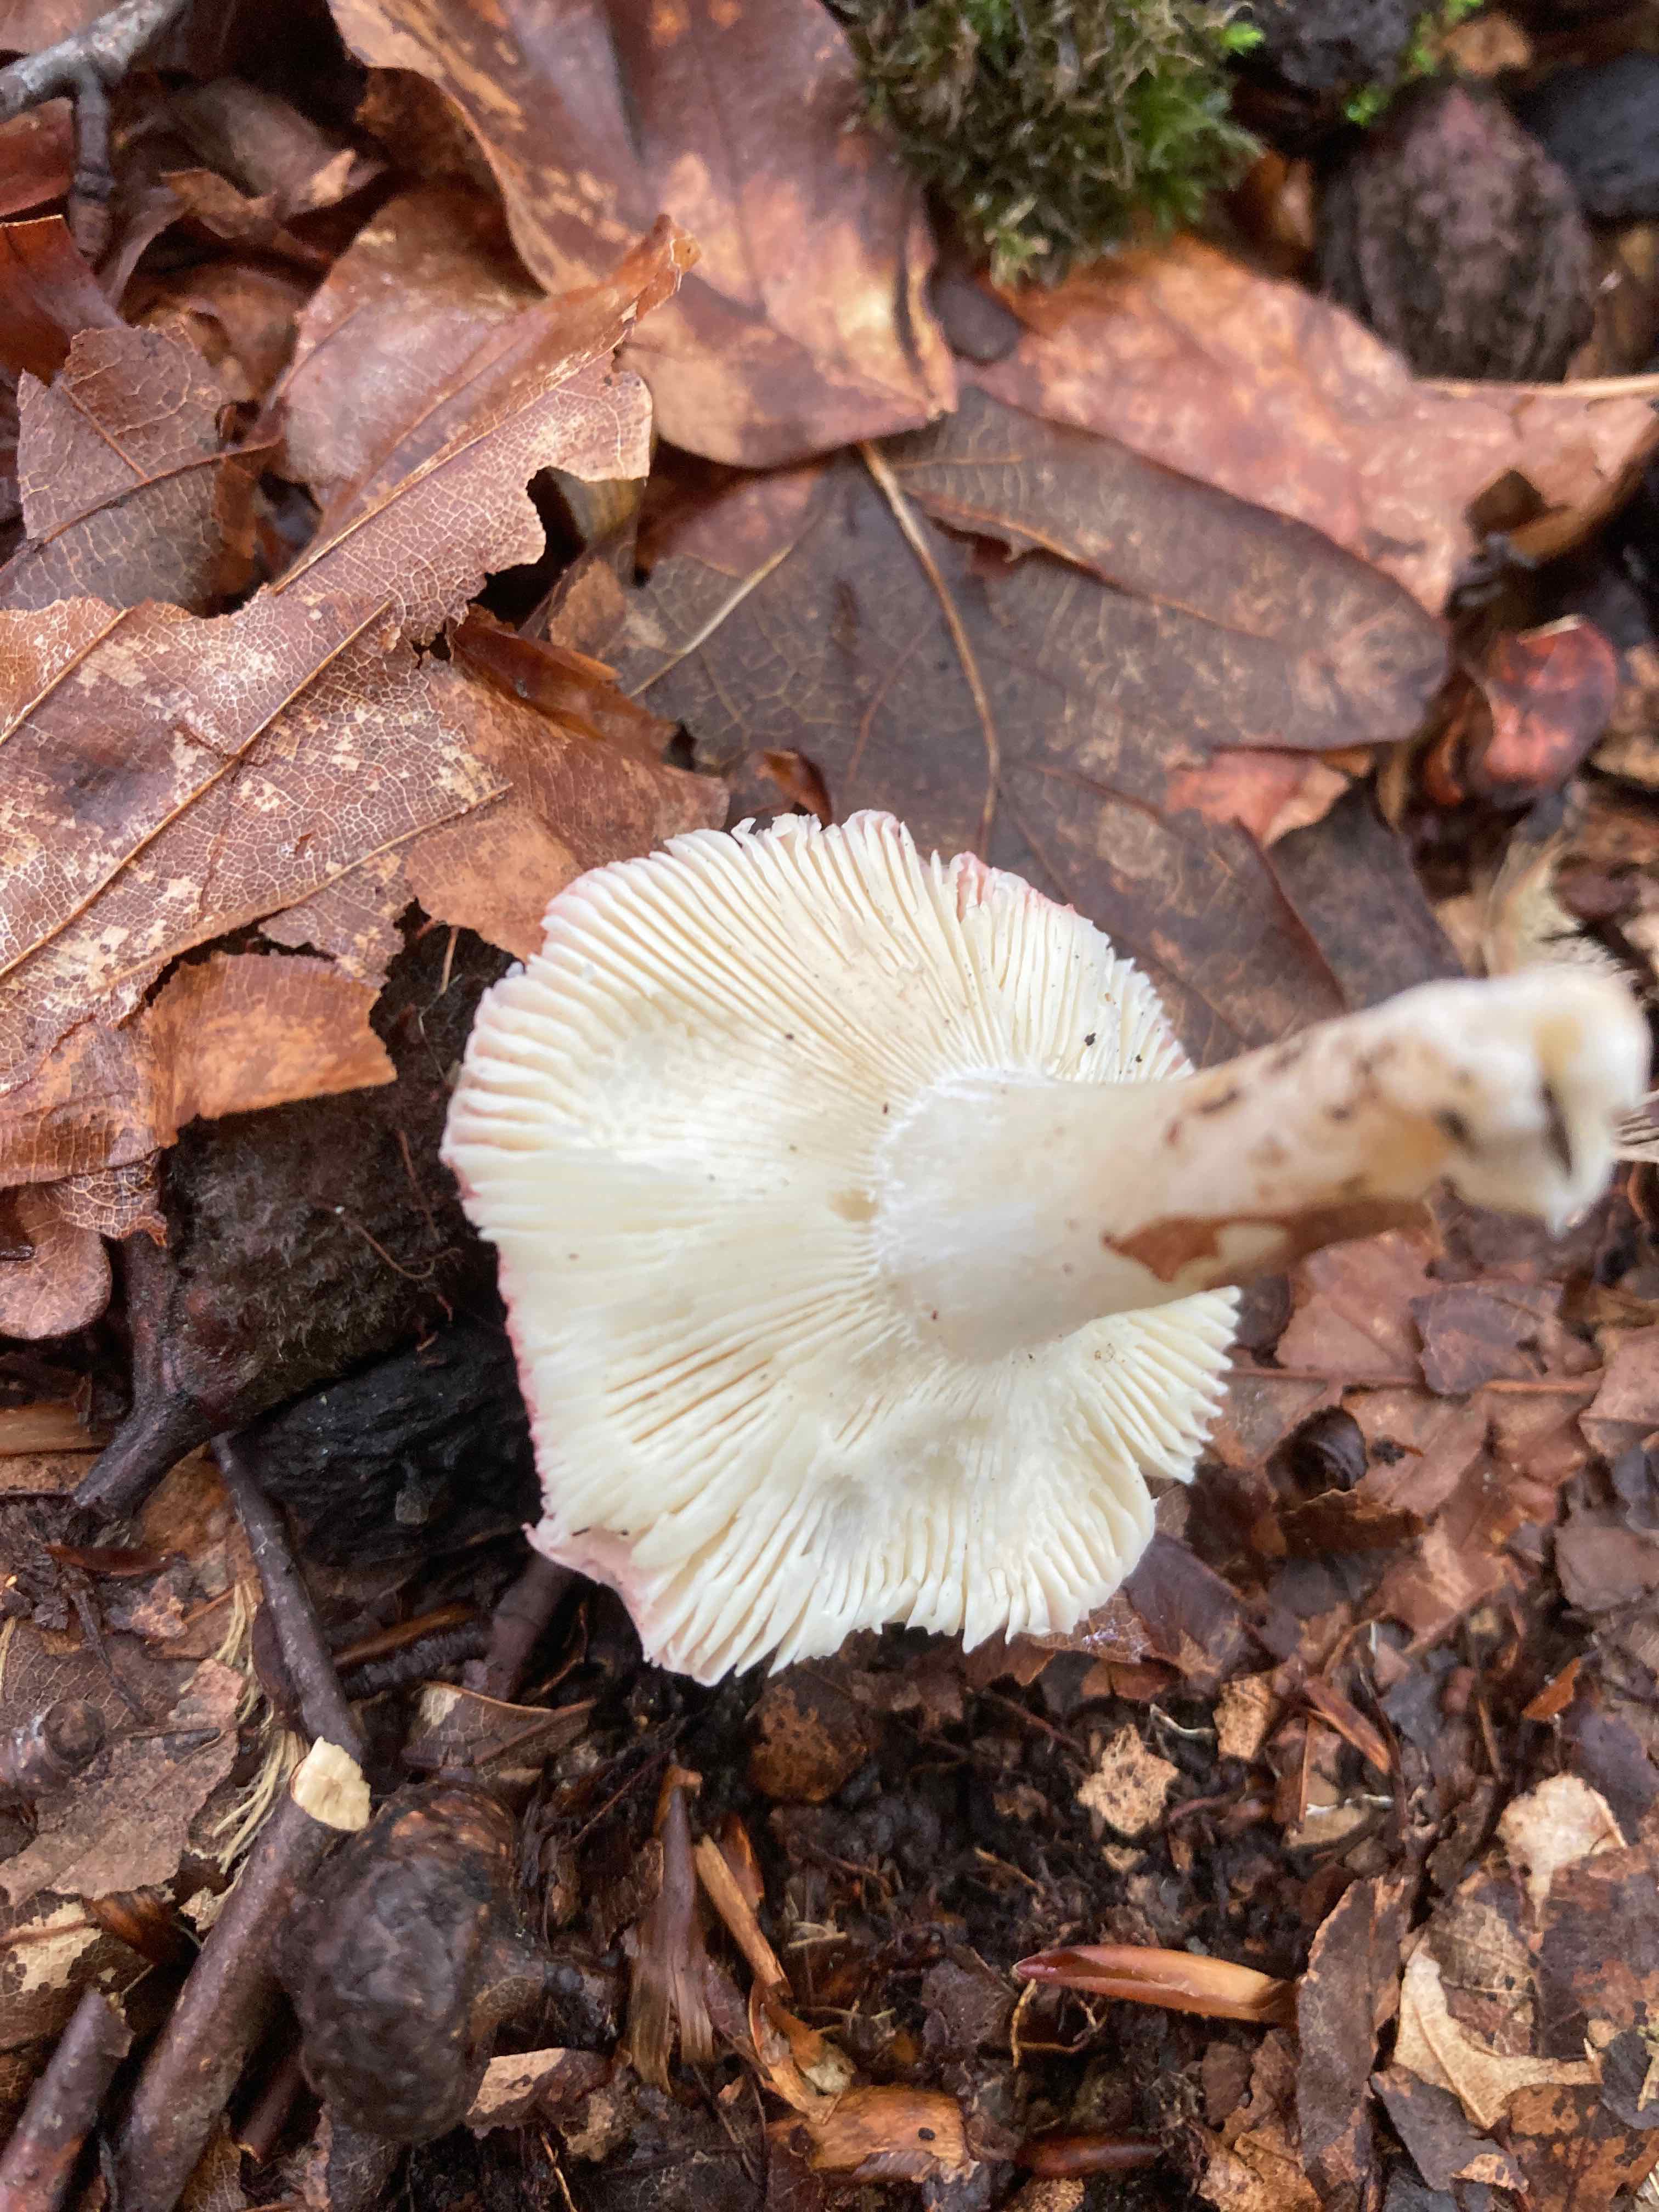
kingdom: Fungi
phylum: Basidiomycota
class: Agaricomycetes
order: Russulales
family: Russulaceae
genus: Russula
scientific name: Russula puellula
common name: gulnende skørhat
